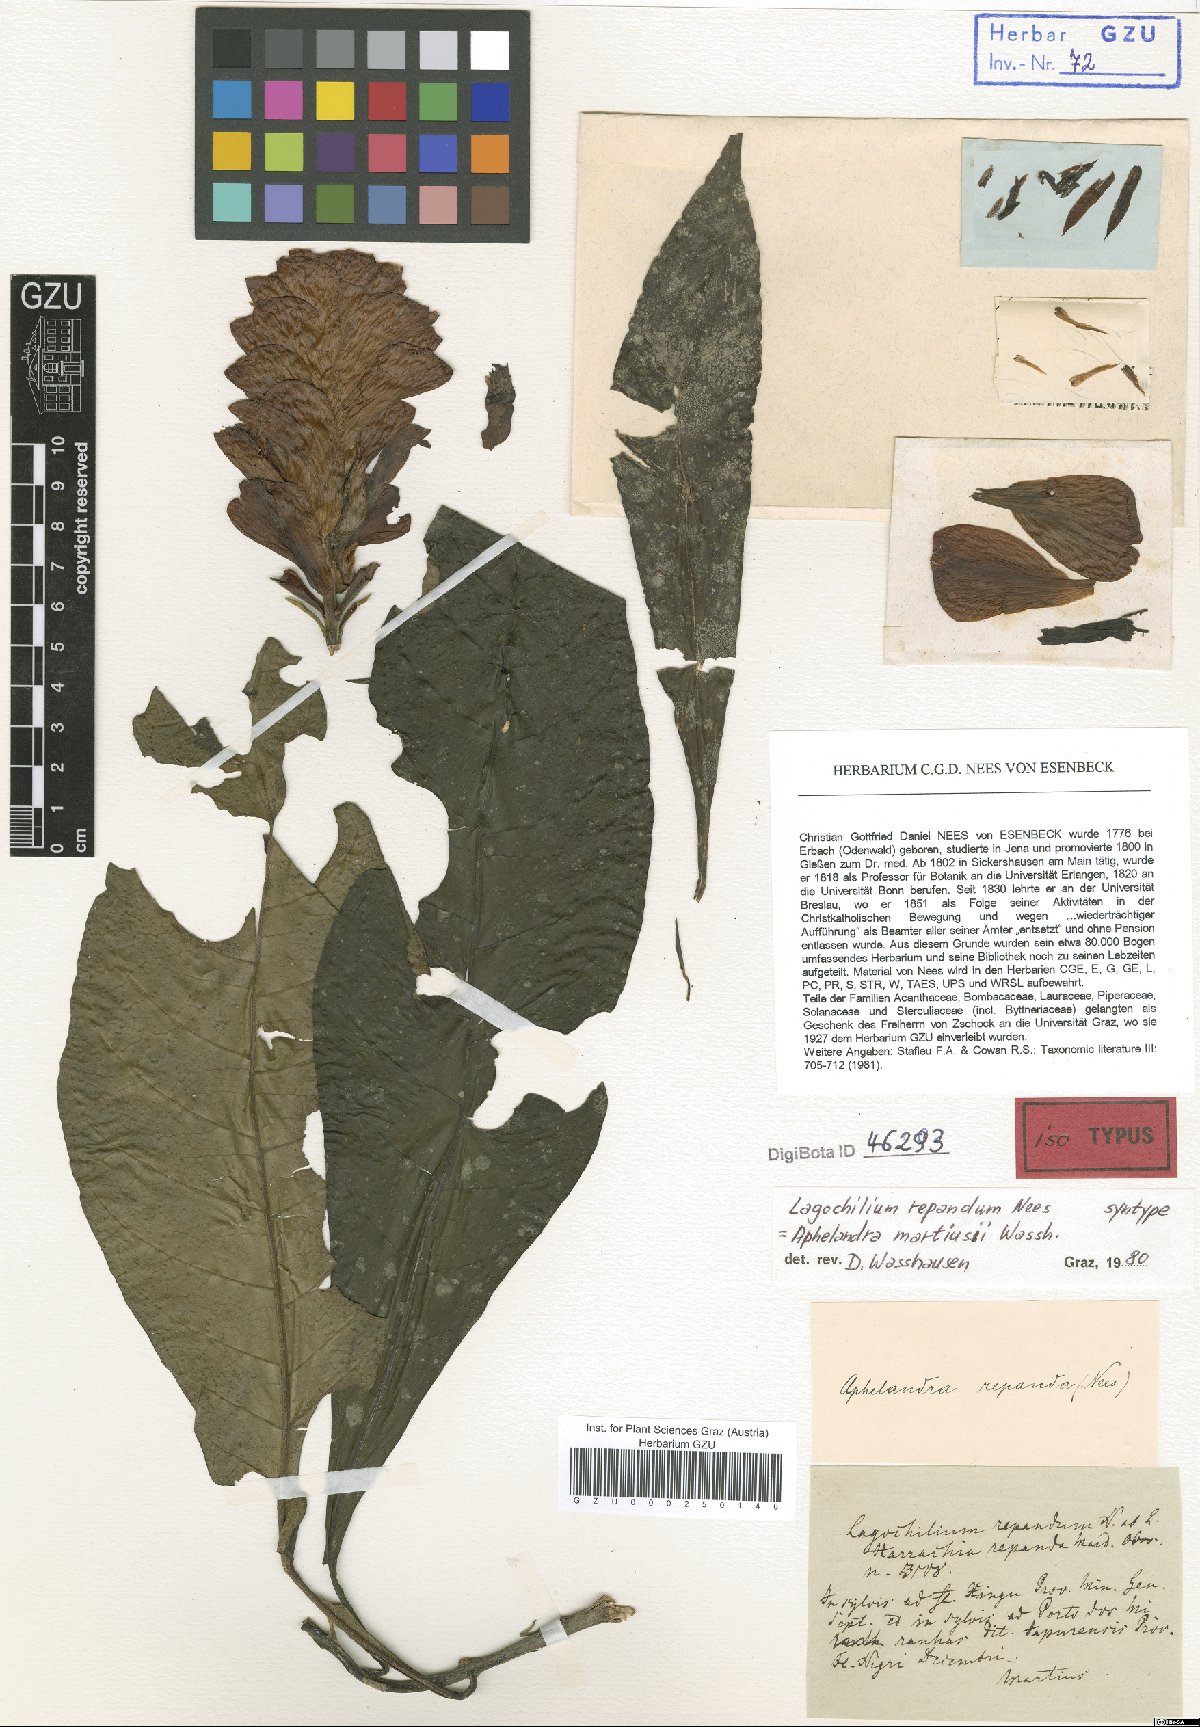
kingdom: Plantae
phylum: Tracheophyta
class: Magnoliopsida
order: Lamiales
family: Acanthaceae
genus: Aphelandra
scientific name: Aphelandra martiusii
